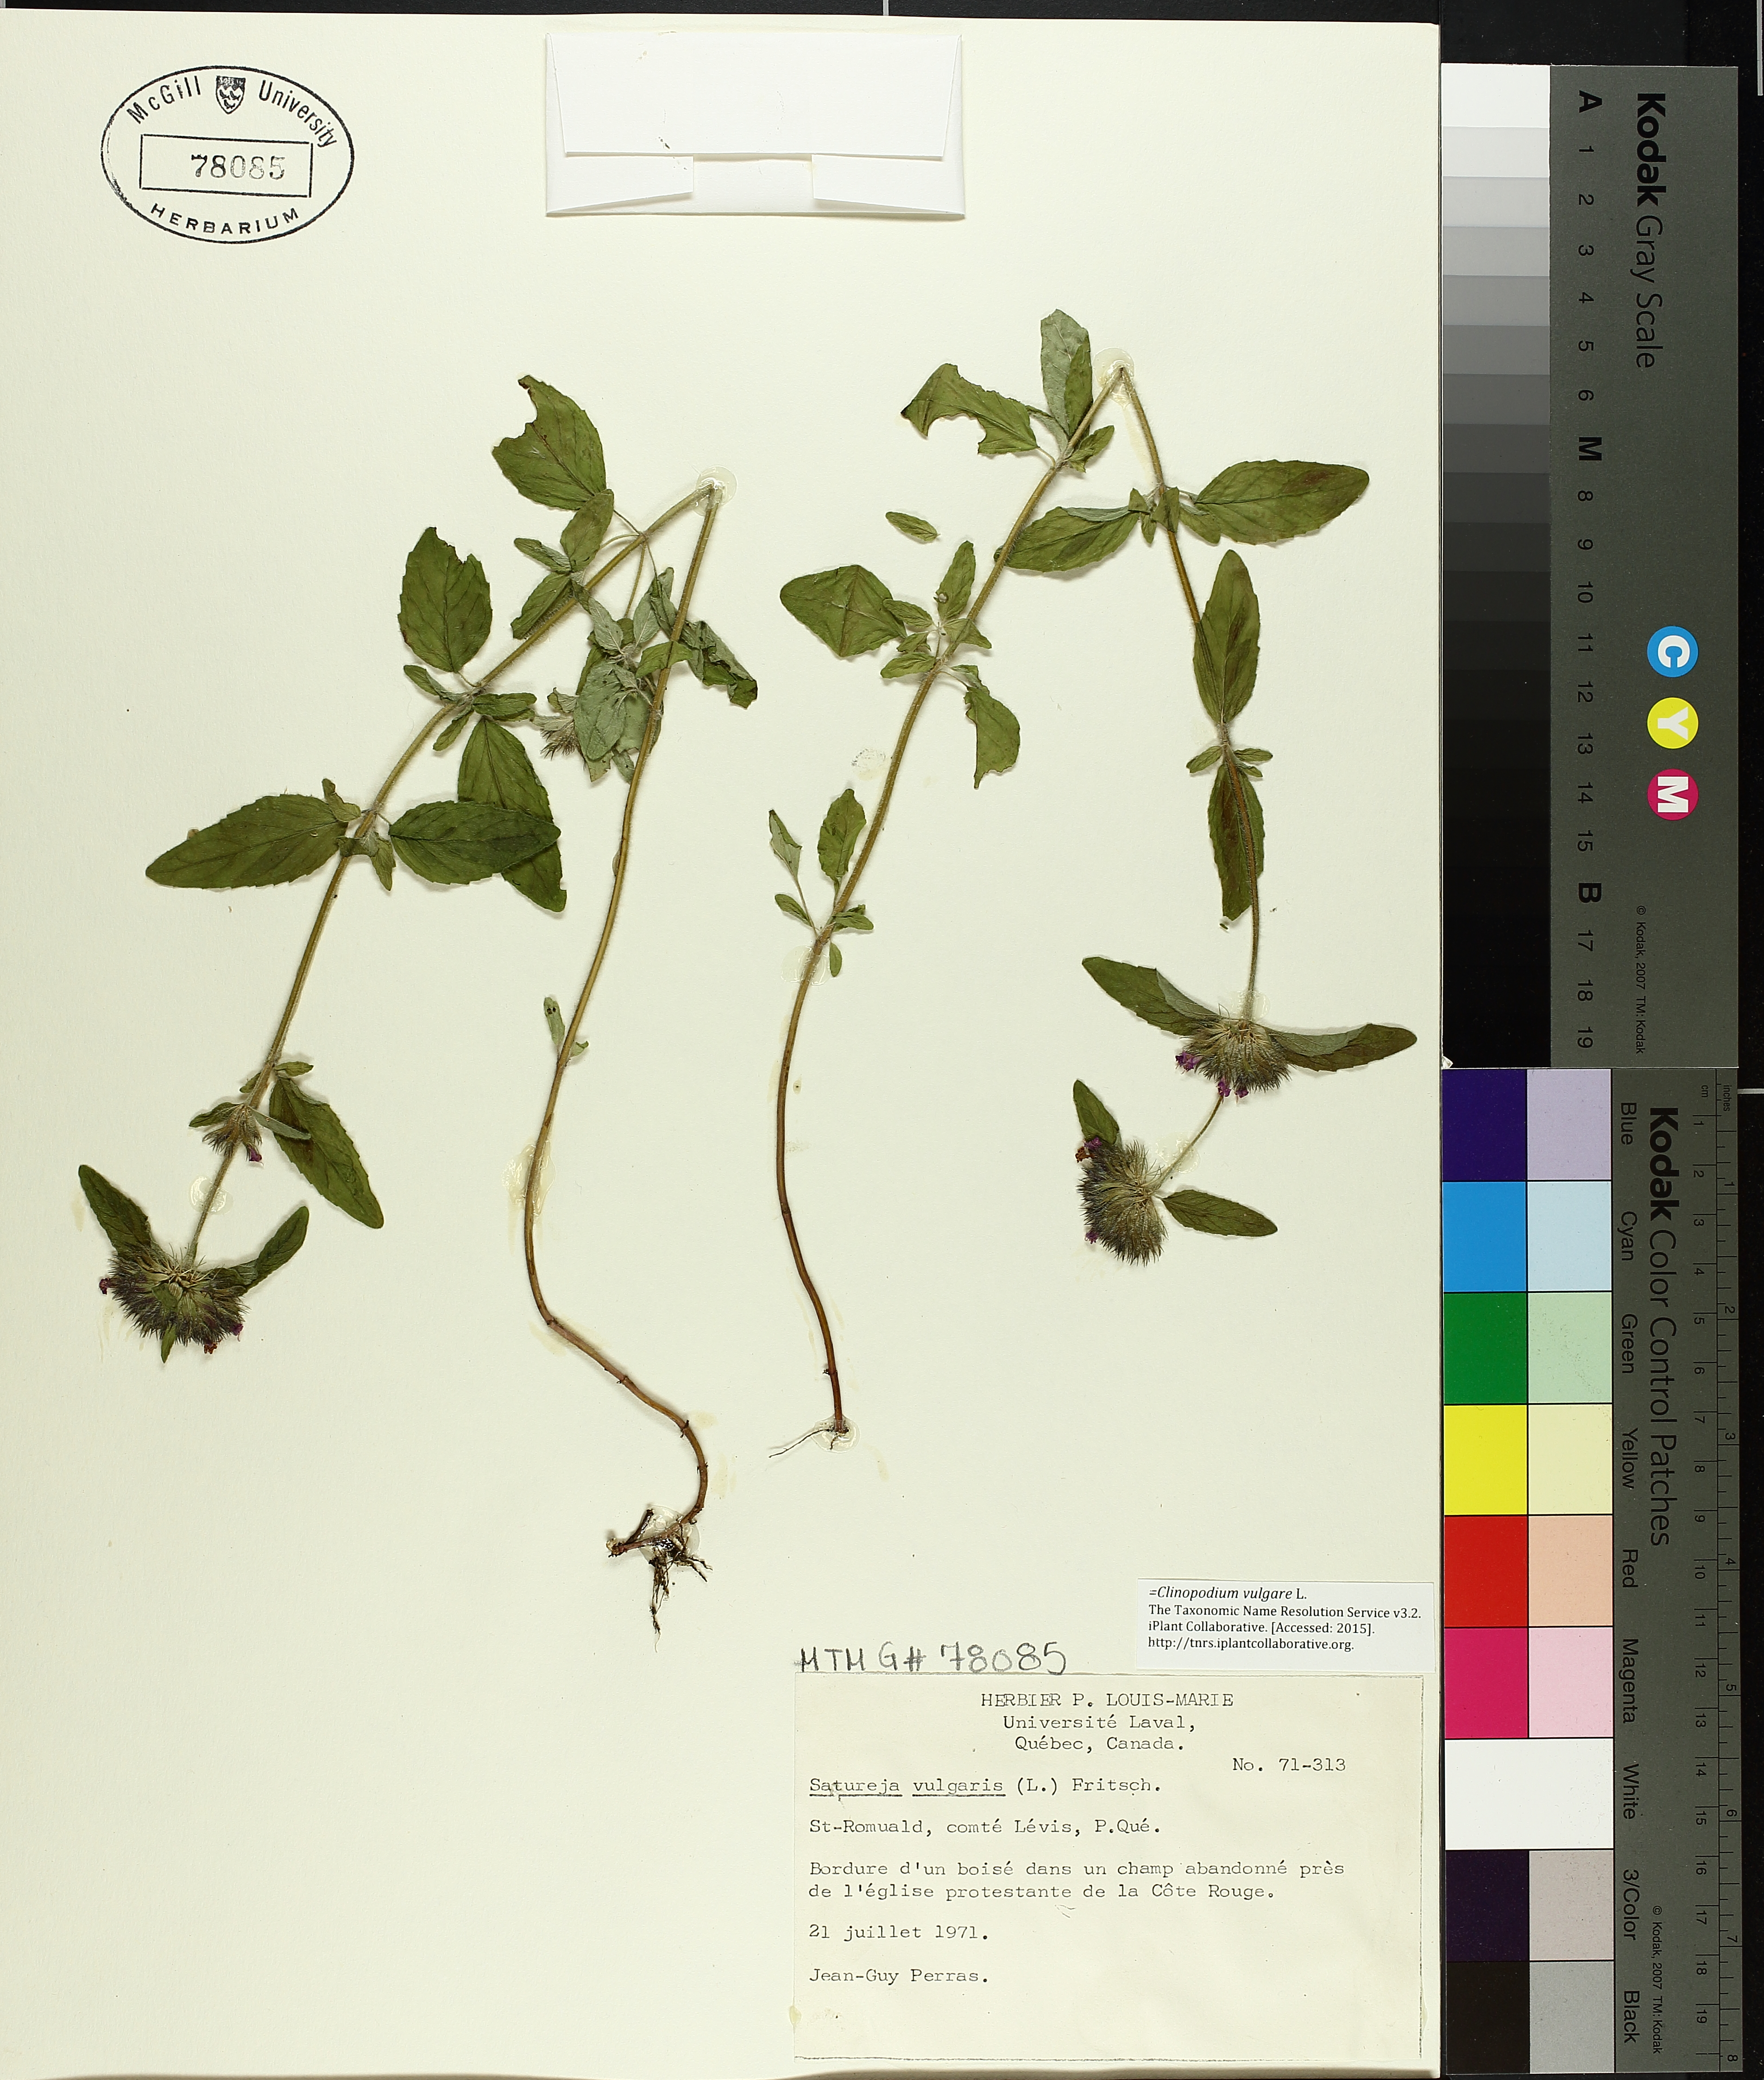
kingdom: Plantae
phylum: Tracheophyta
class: Magnoliopsida
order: Lamiales
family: Lamiaceae
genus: Clinopodium
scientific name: Clinopodium vulgare
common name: Wild basil
